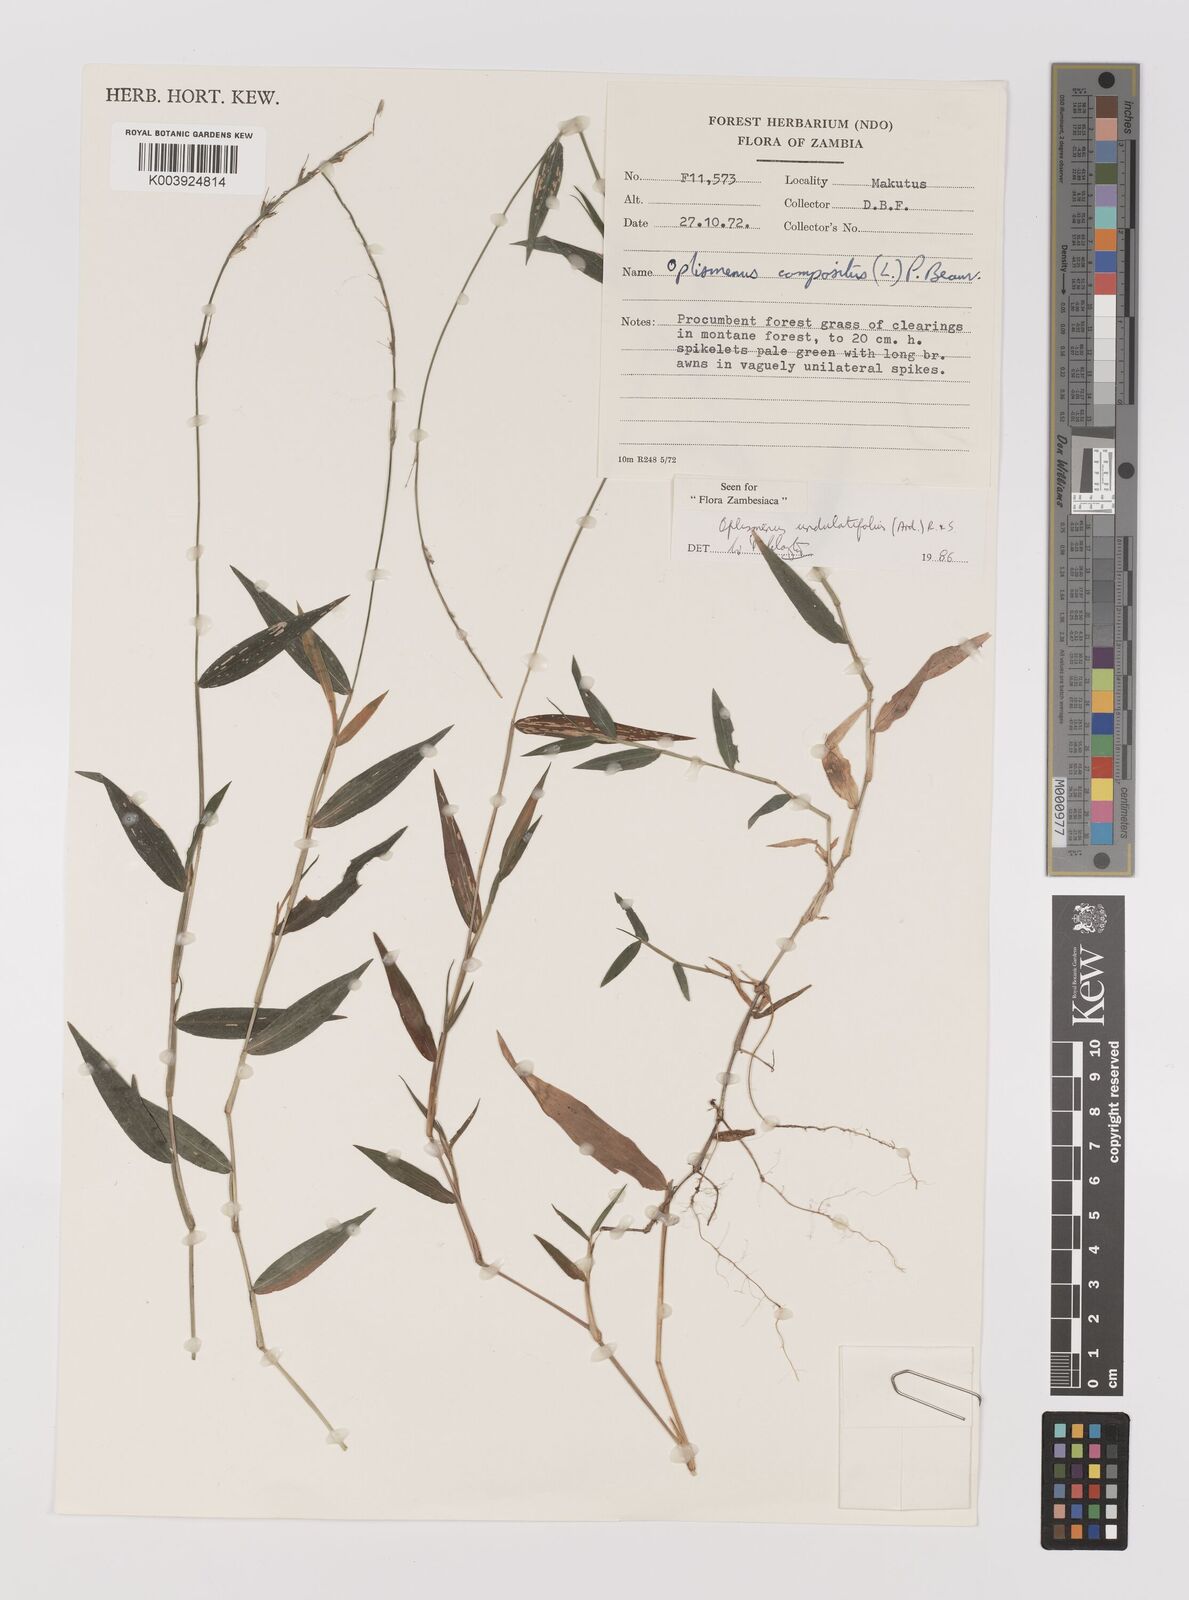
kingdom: Plantae
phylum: Tracheophyta
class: Liliopsida
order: Poales
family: Poaceae
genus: Oplismenus
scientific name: Oplismenus undulatifolius
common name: Wavyleaf basketgrass
